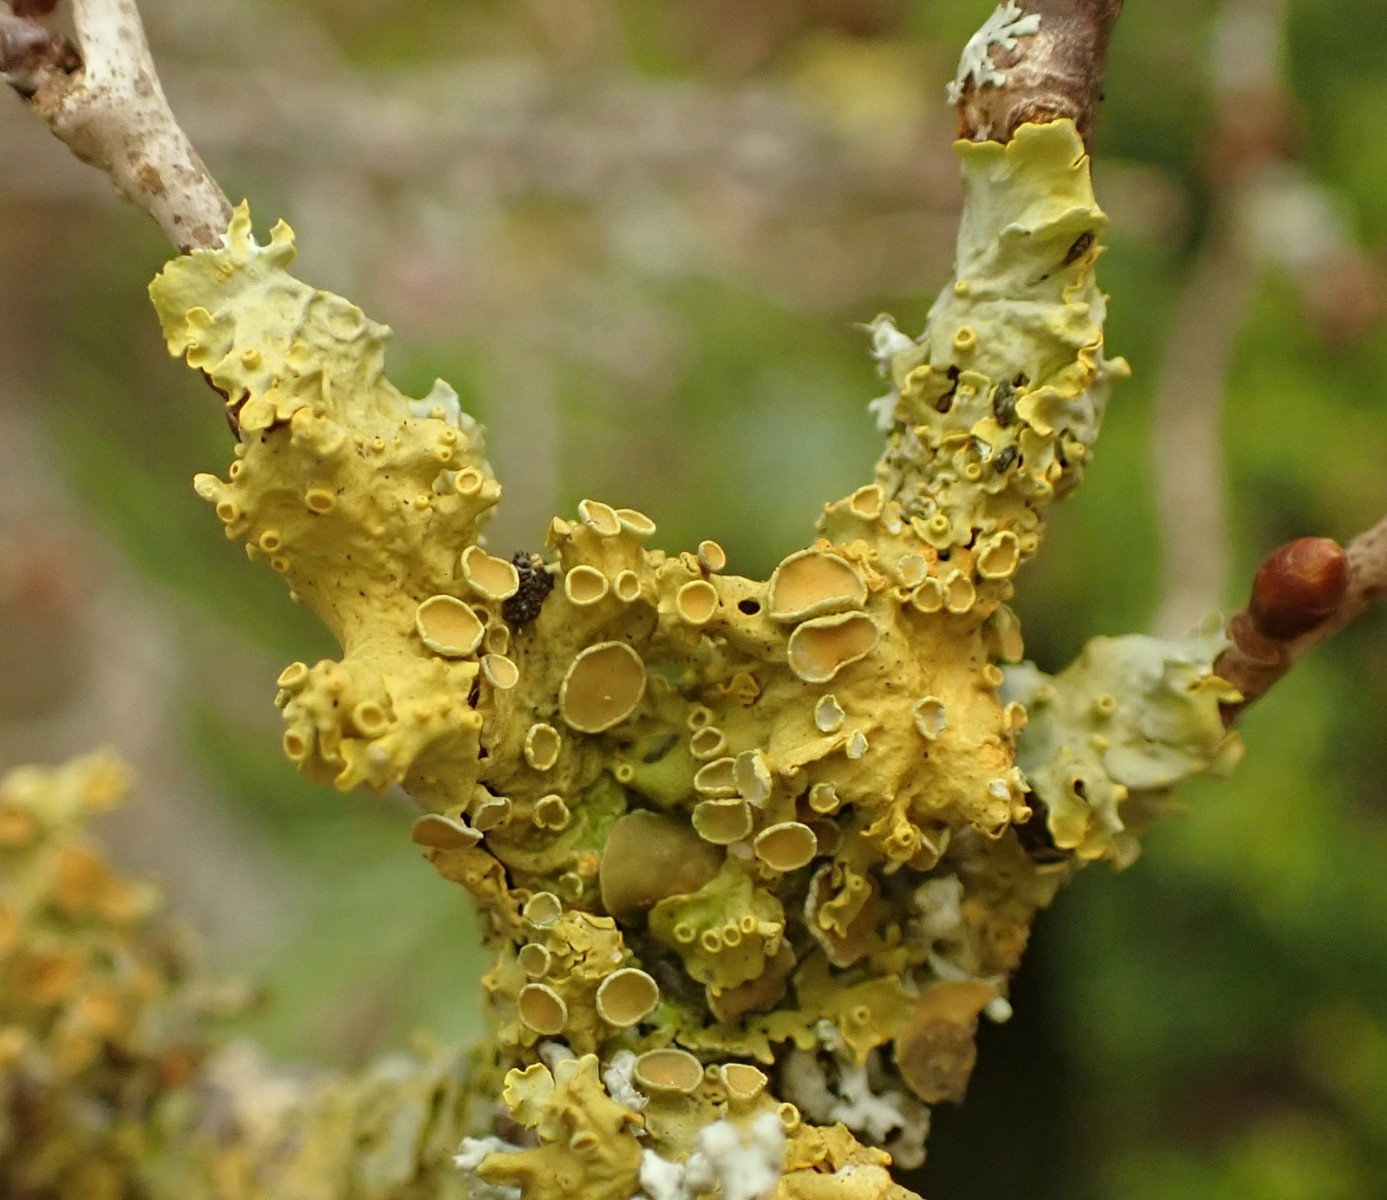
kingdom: Fungi
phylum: Ascomycota
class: Lecanoromycetes
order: Teloschistales
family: Teloschistaceae
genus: Xanthoria
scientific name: Xanthoria parietina
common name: almindelig væggelav
